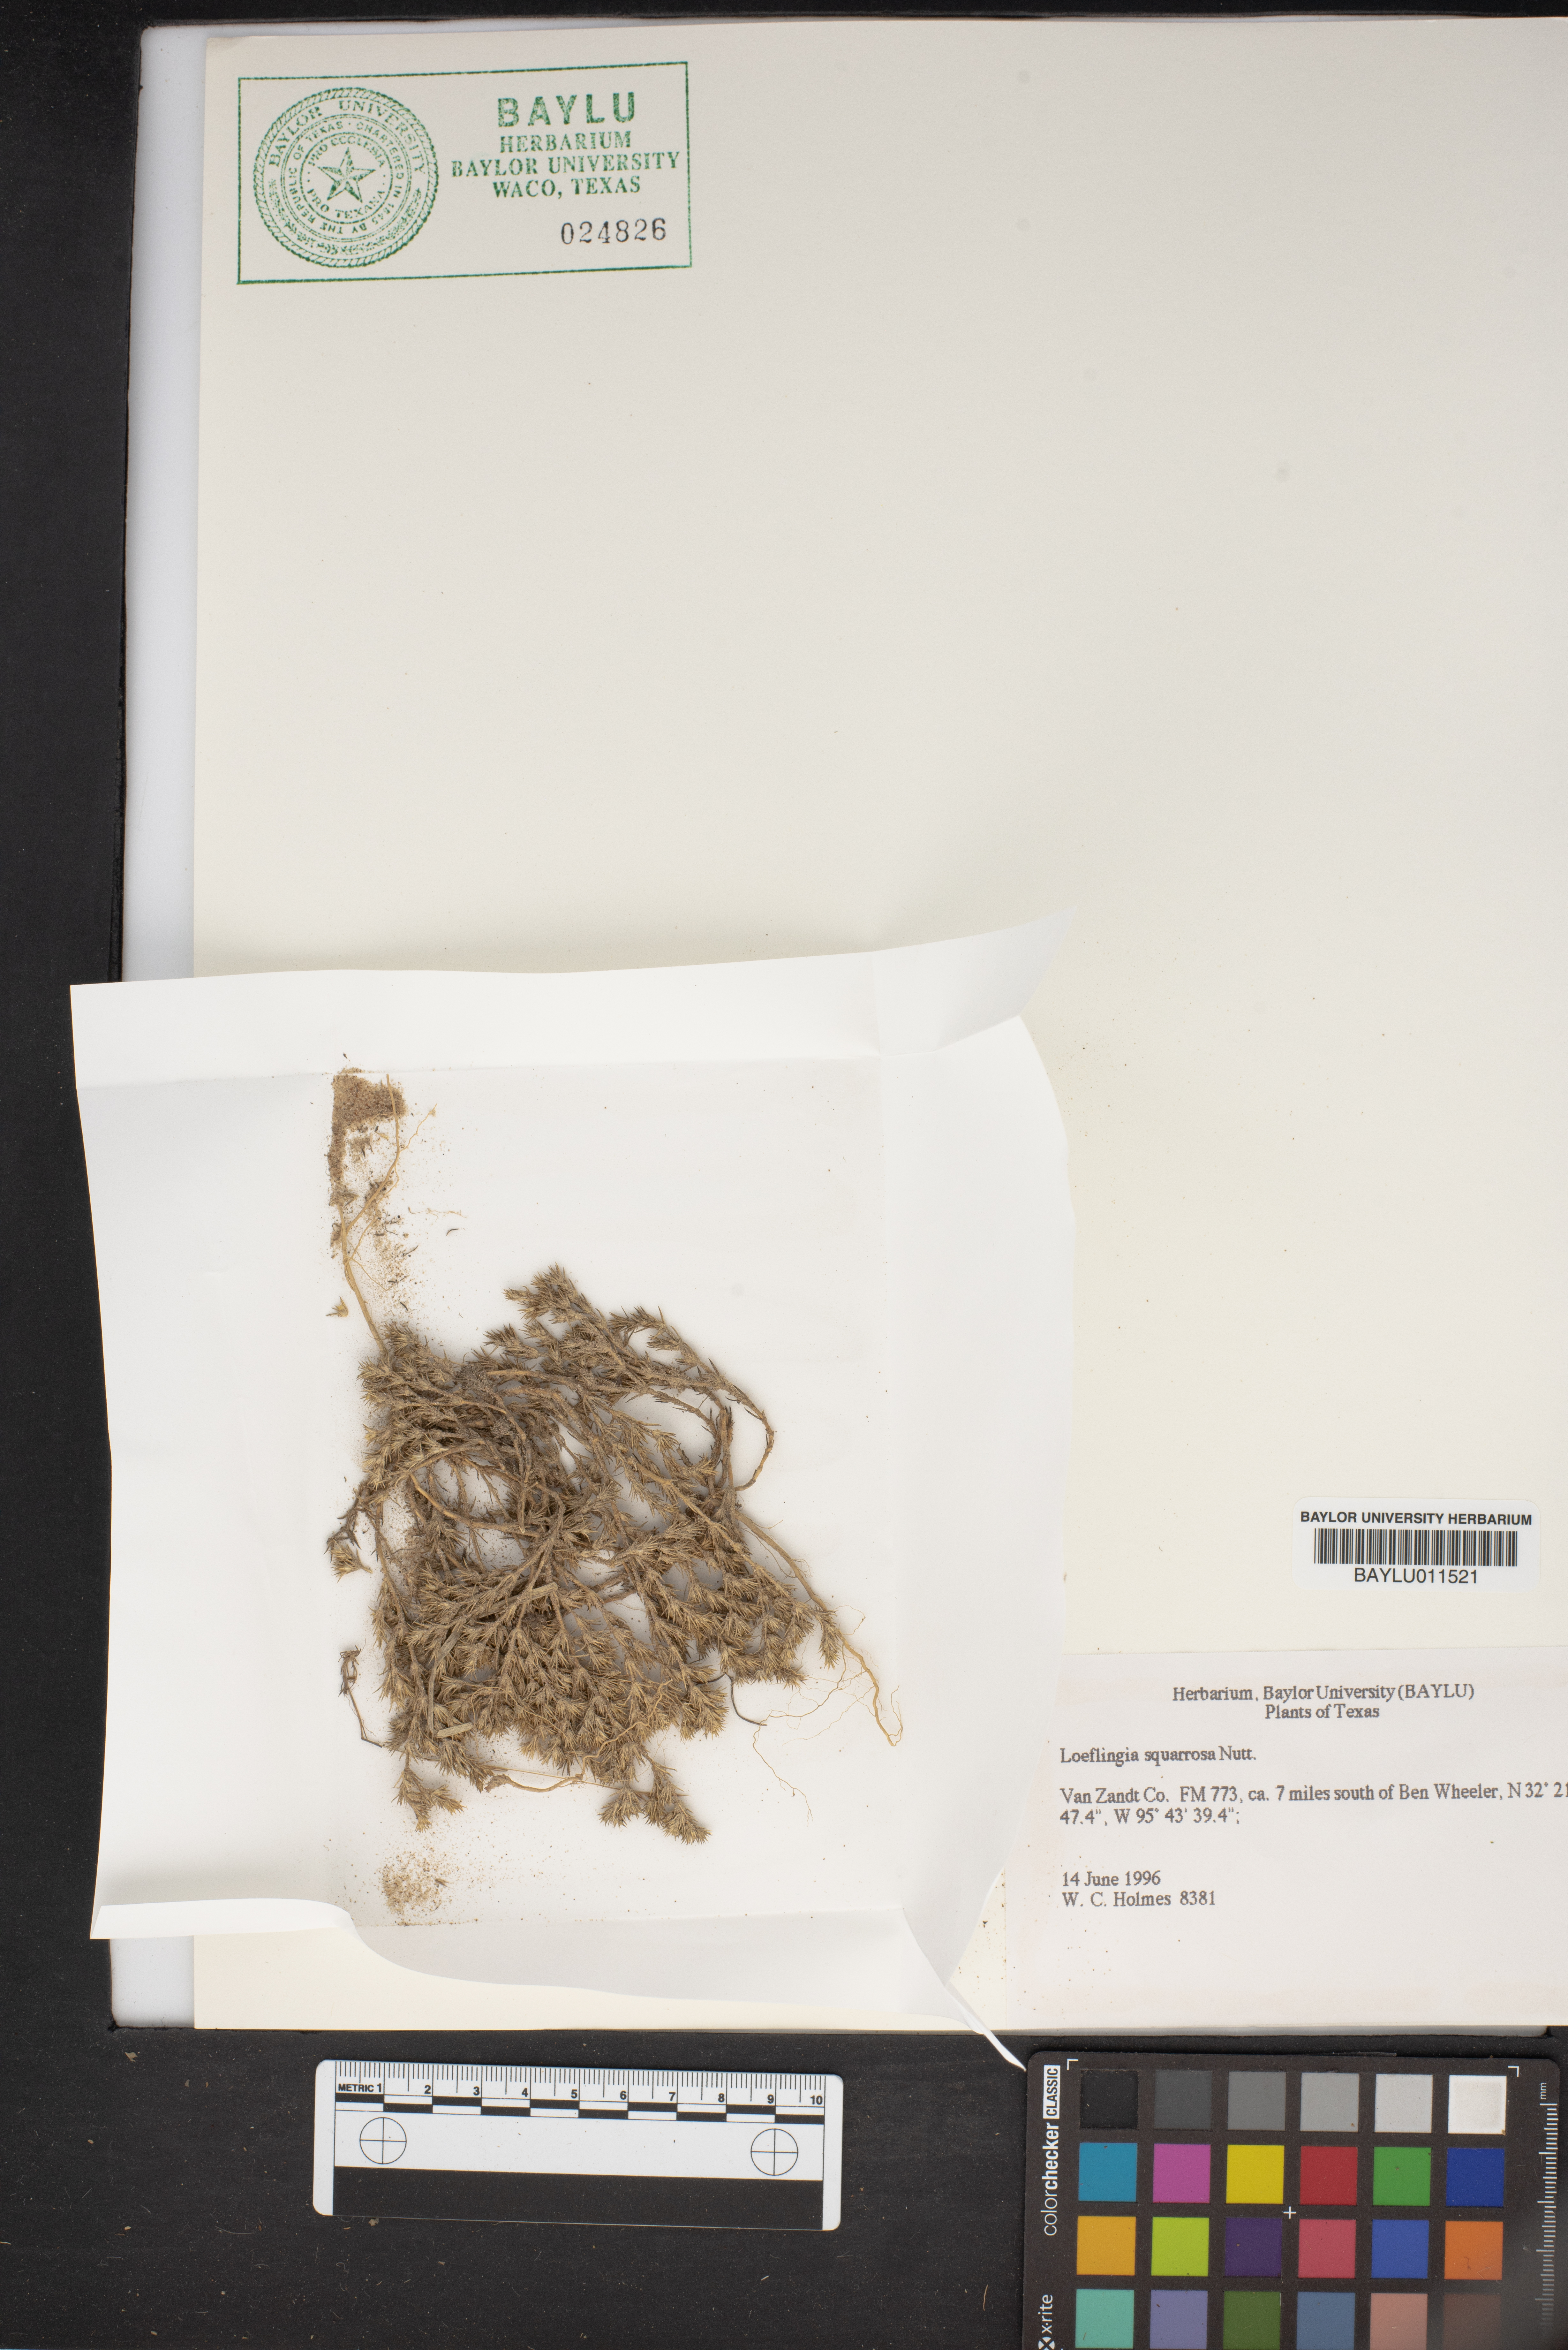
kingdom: Plantae
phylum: Tracheophyta
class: Magnoliopsida
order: Caryophyllales
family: Caryophyllaceae
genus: Loeflingia
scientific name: Loeflingia squarrosa
